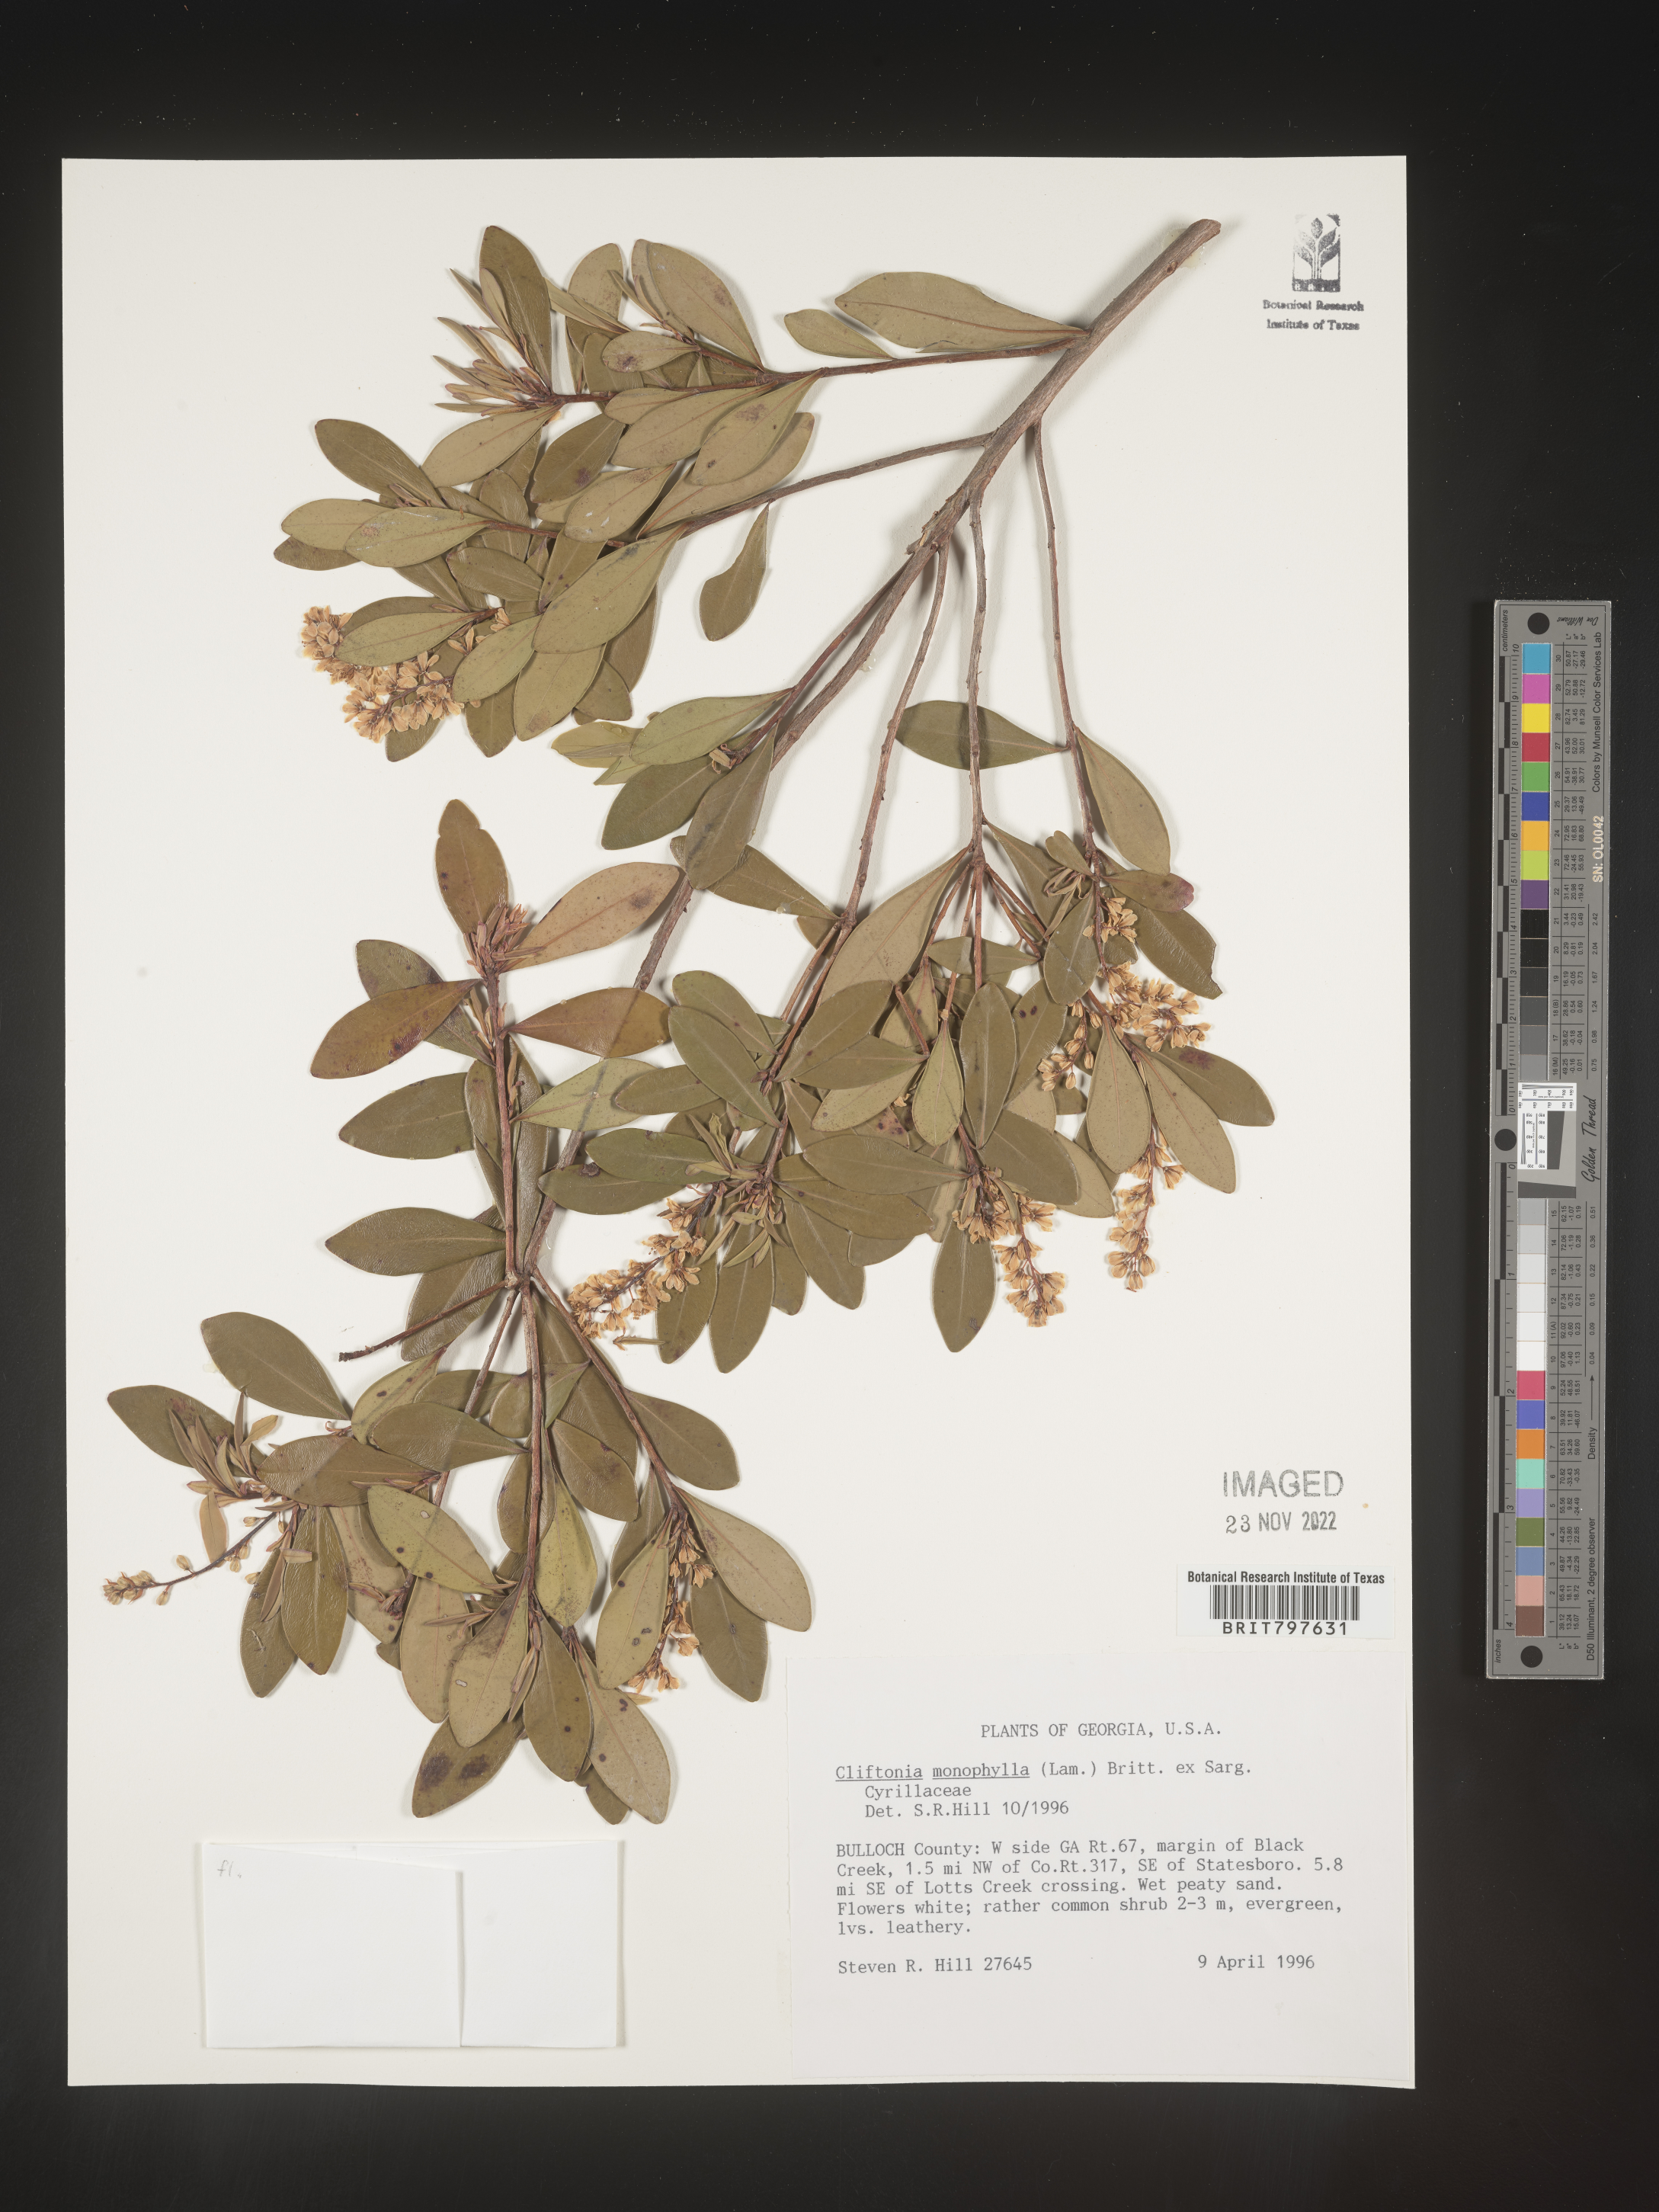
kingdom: Plantae
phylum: Tracheophyta
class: Magnoliopsida
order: Ericales
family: Cyrillaceae
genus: Cliftonia
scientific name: Cliftonia monophylla
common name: Titi
